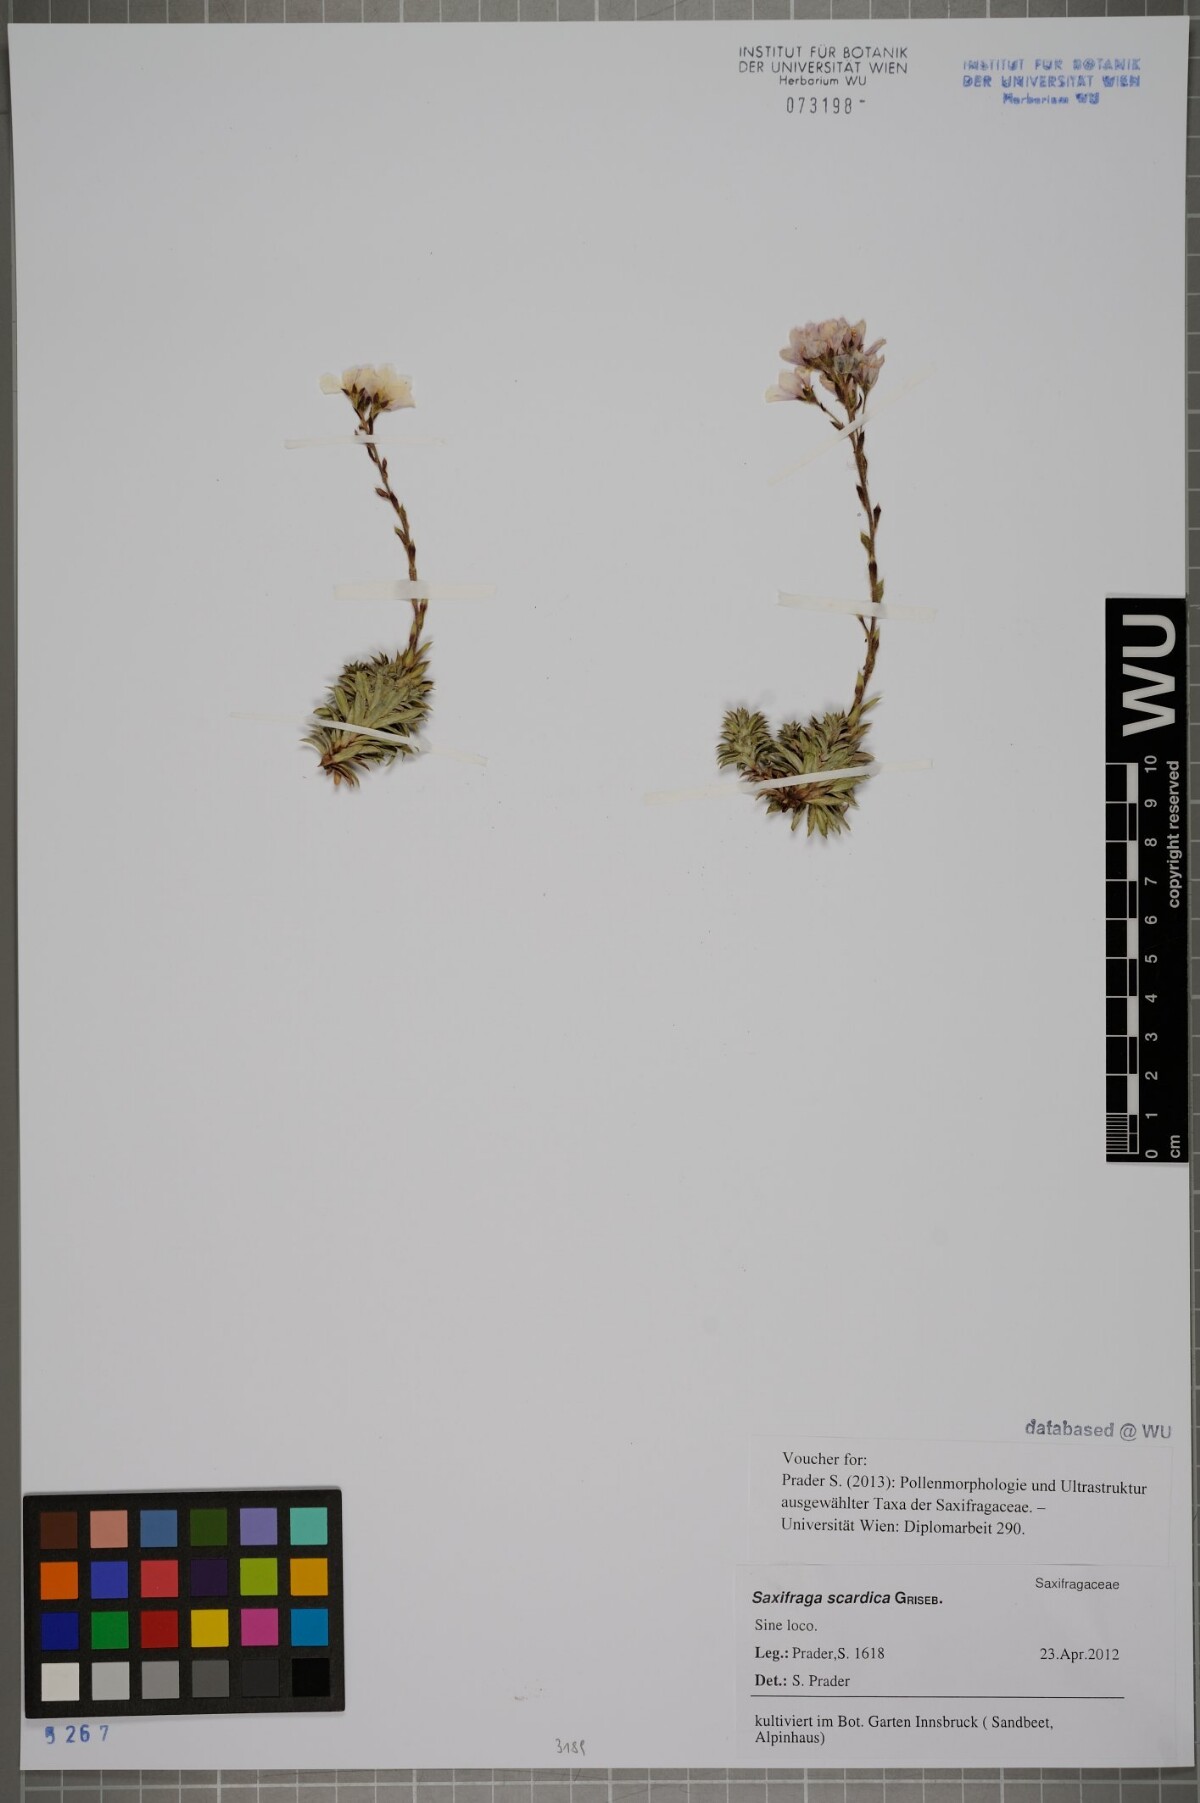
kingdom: Plantae
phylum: Tracheophyta
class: Magnoliopsida
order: Saxifragales
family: Saxifragaceae
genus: Saxifraga
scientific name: Saxifraga scardica
